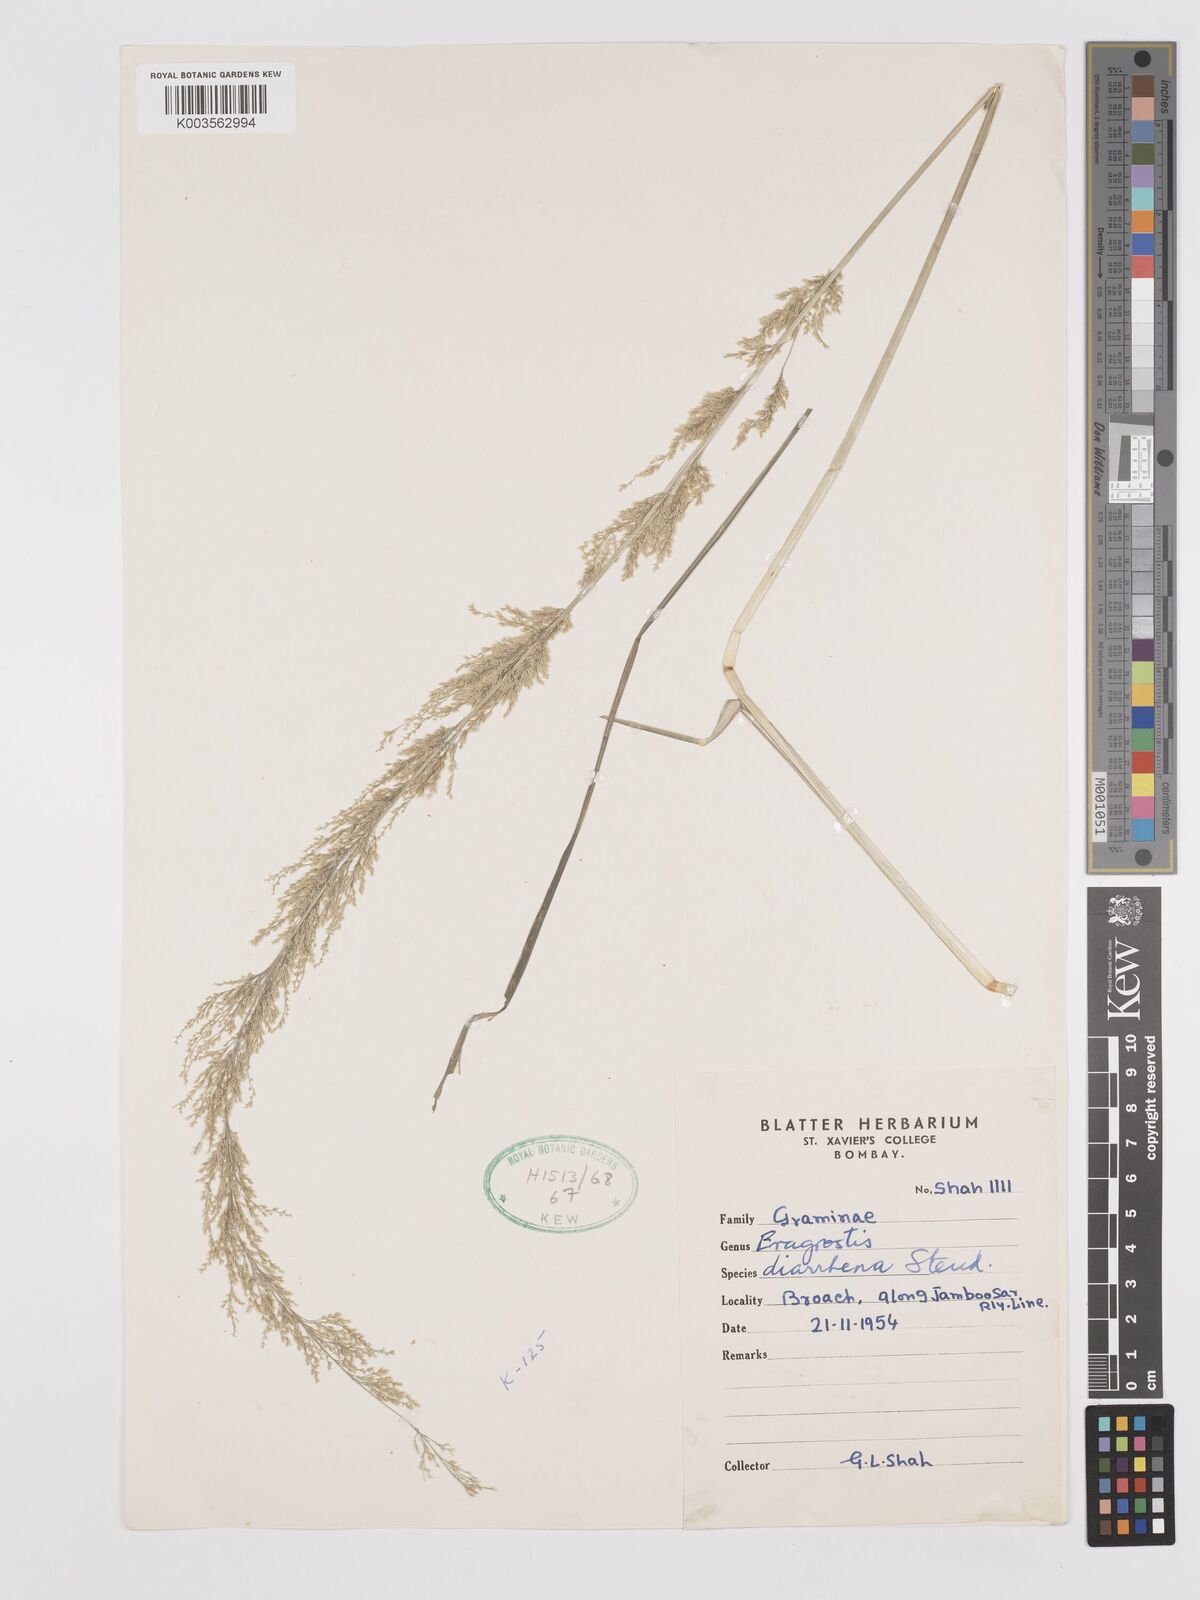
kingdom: Plantae
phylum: Tracheophyta
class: Liliopsida
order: Poales
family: Poaceae
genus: Eragrostis
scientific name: Eragrostis japonica
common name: Pond lovegrass
